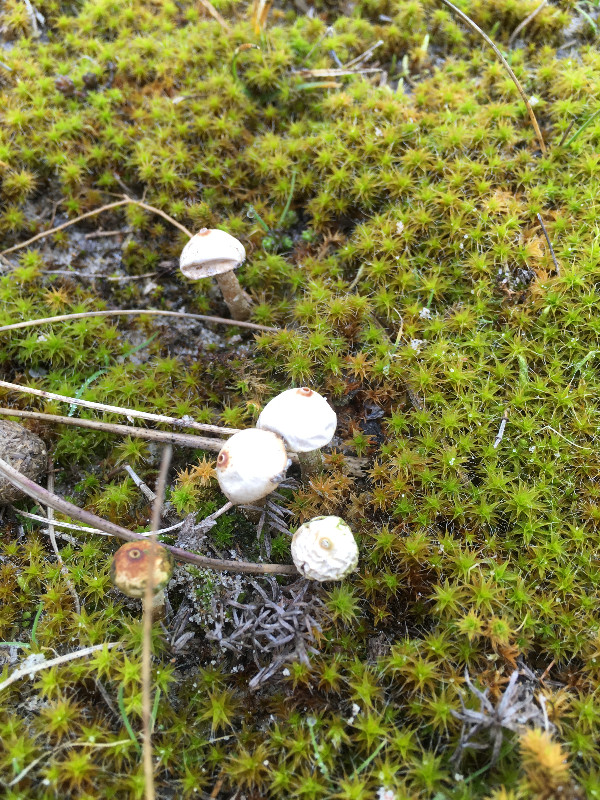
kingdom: Fungi
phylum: Basidiomycota
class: Agaricomycetes
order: Agaricales
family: Agaricaceae
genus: Tulostoma
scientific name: Tulostoma brumale
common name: vinter-stilkbovist
